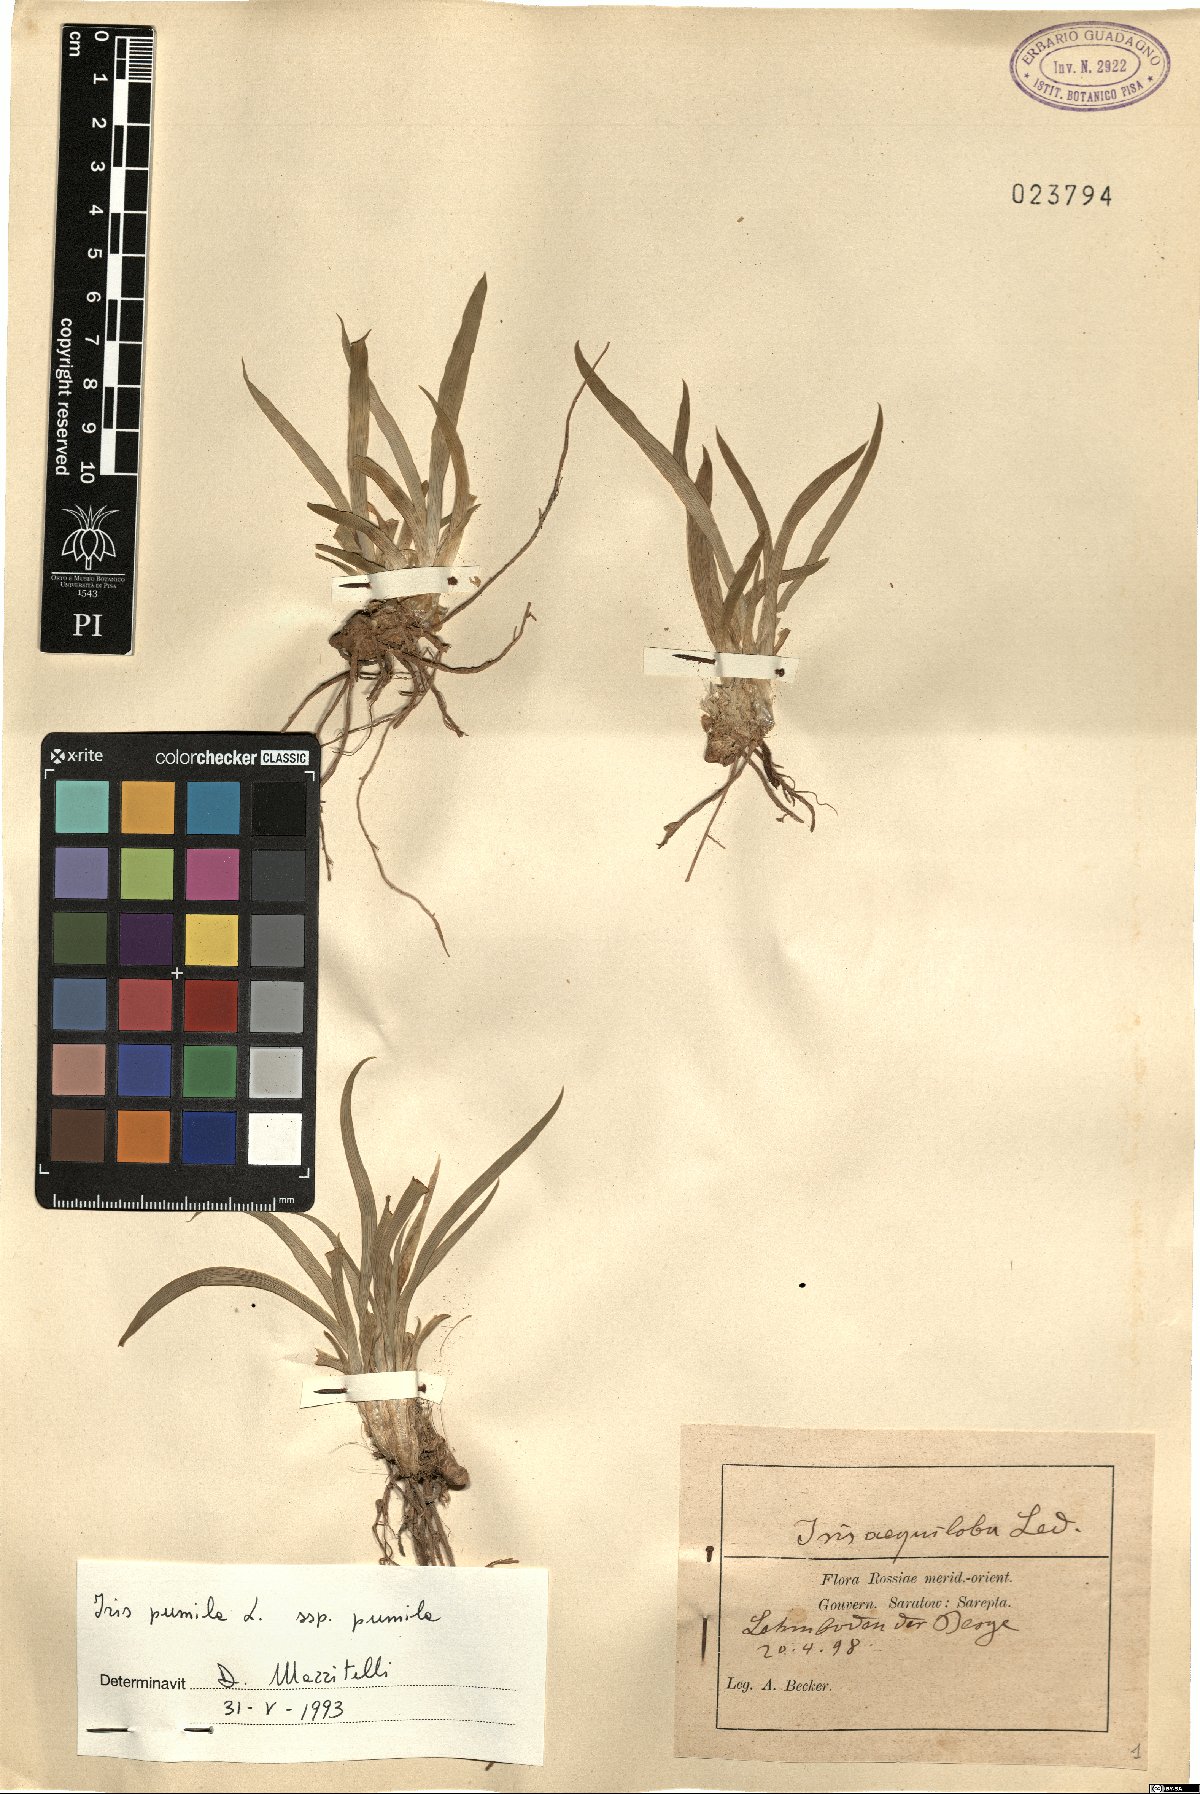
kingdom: Plantae
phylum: Tracheophyta
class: Liliopsida
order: Asparagales
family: Iridaceae
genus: Iris
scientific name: Iris pumila
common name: Dwarf iris
